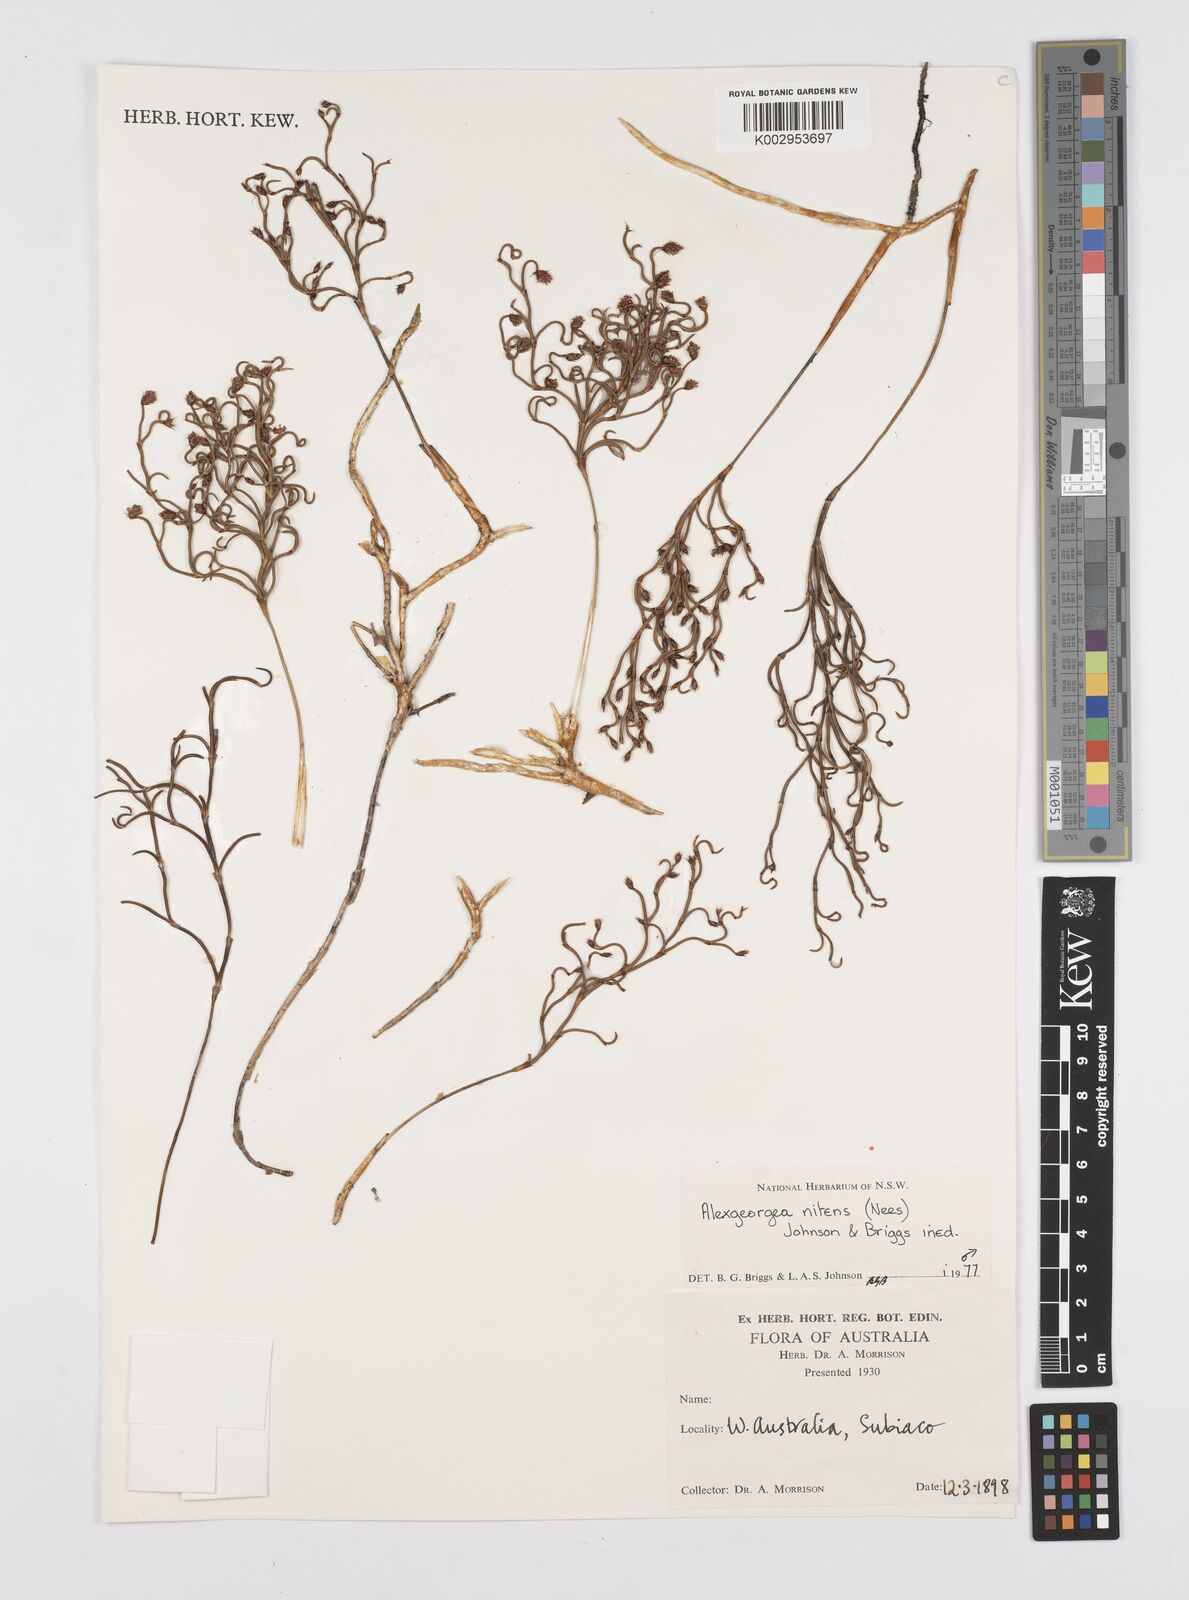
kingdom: Plantae
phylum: Tracheophyta
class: Liliopsida
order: Poales
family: Restionaceae
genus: Alexgeorgea
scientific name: Alexgeorgea nitens
